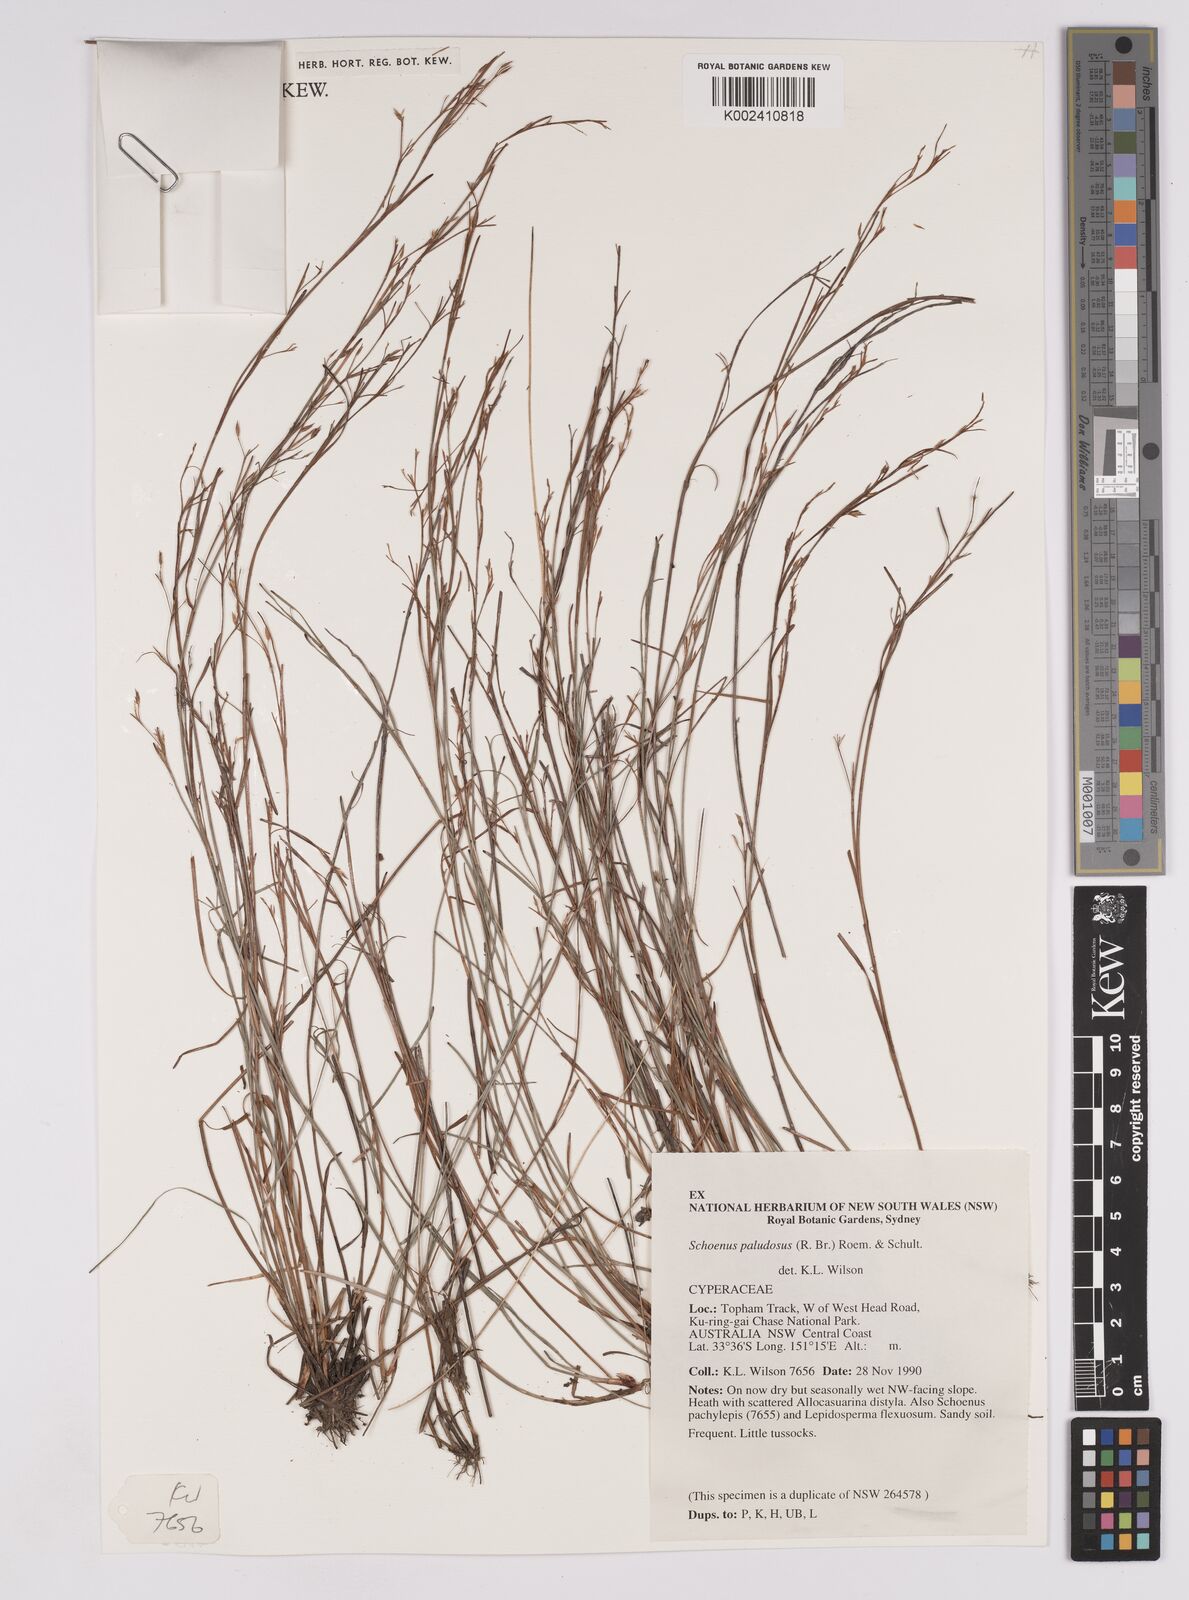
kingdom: Plantae
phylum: Tracheophyta
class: Liliopsida
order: Poales
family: Cyperaceae
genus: Anthelepis
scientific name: Anthelepis paludosa
